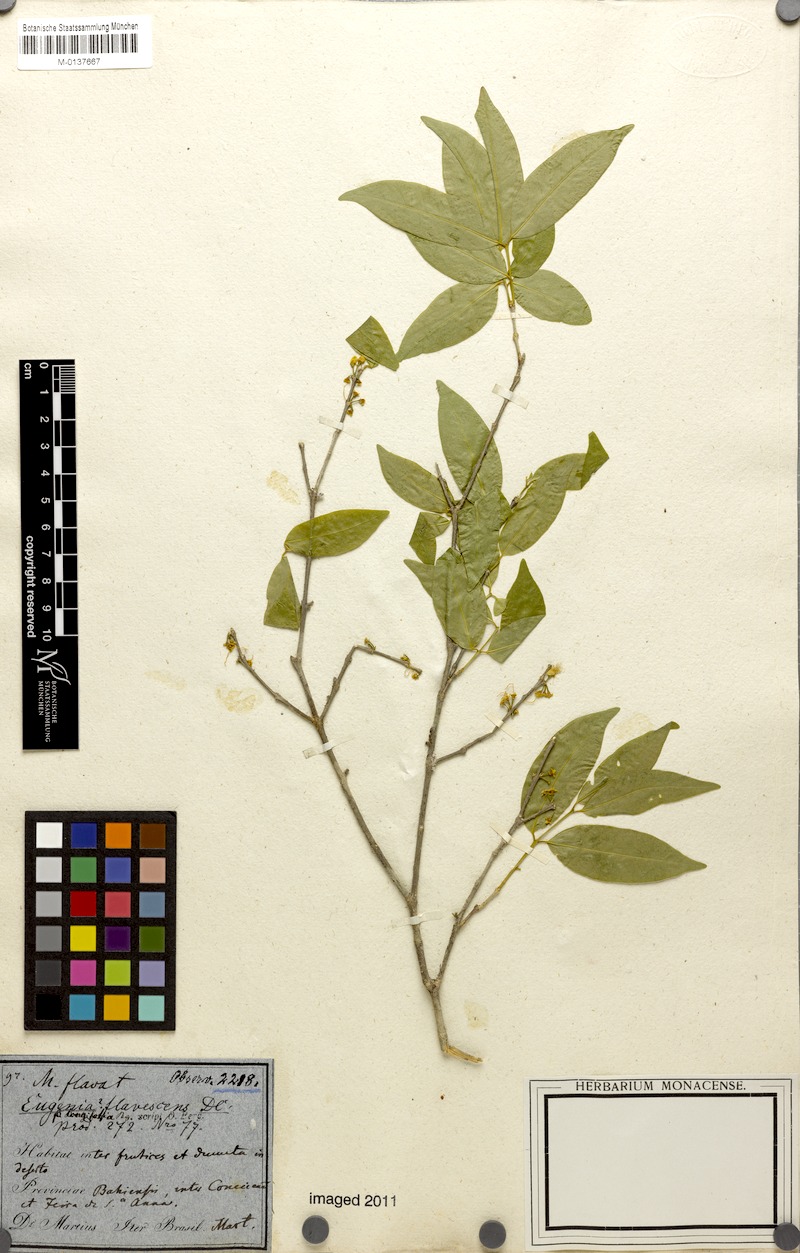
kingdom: Plantae
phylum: Tracheophyta
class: Magnoliopsida
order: Myrtales
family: Myrtaceae
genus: Eugenia
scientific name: Eugenia flavescens
